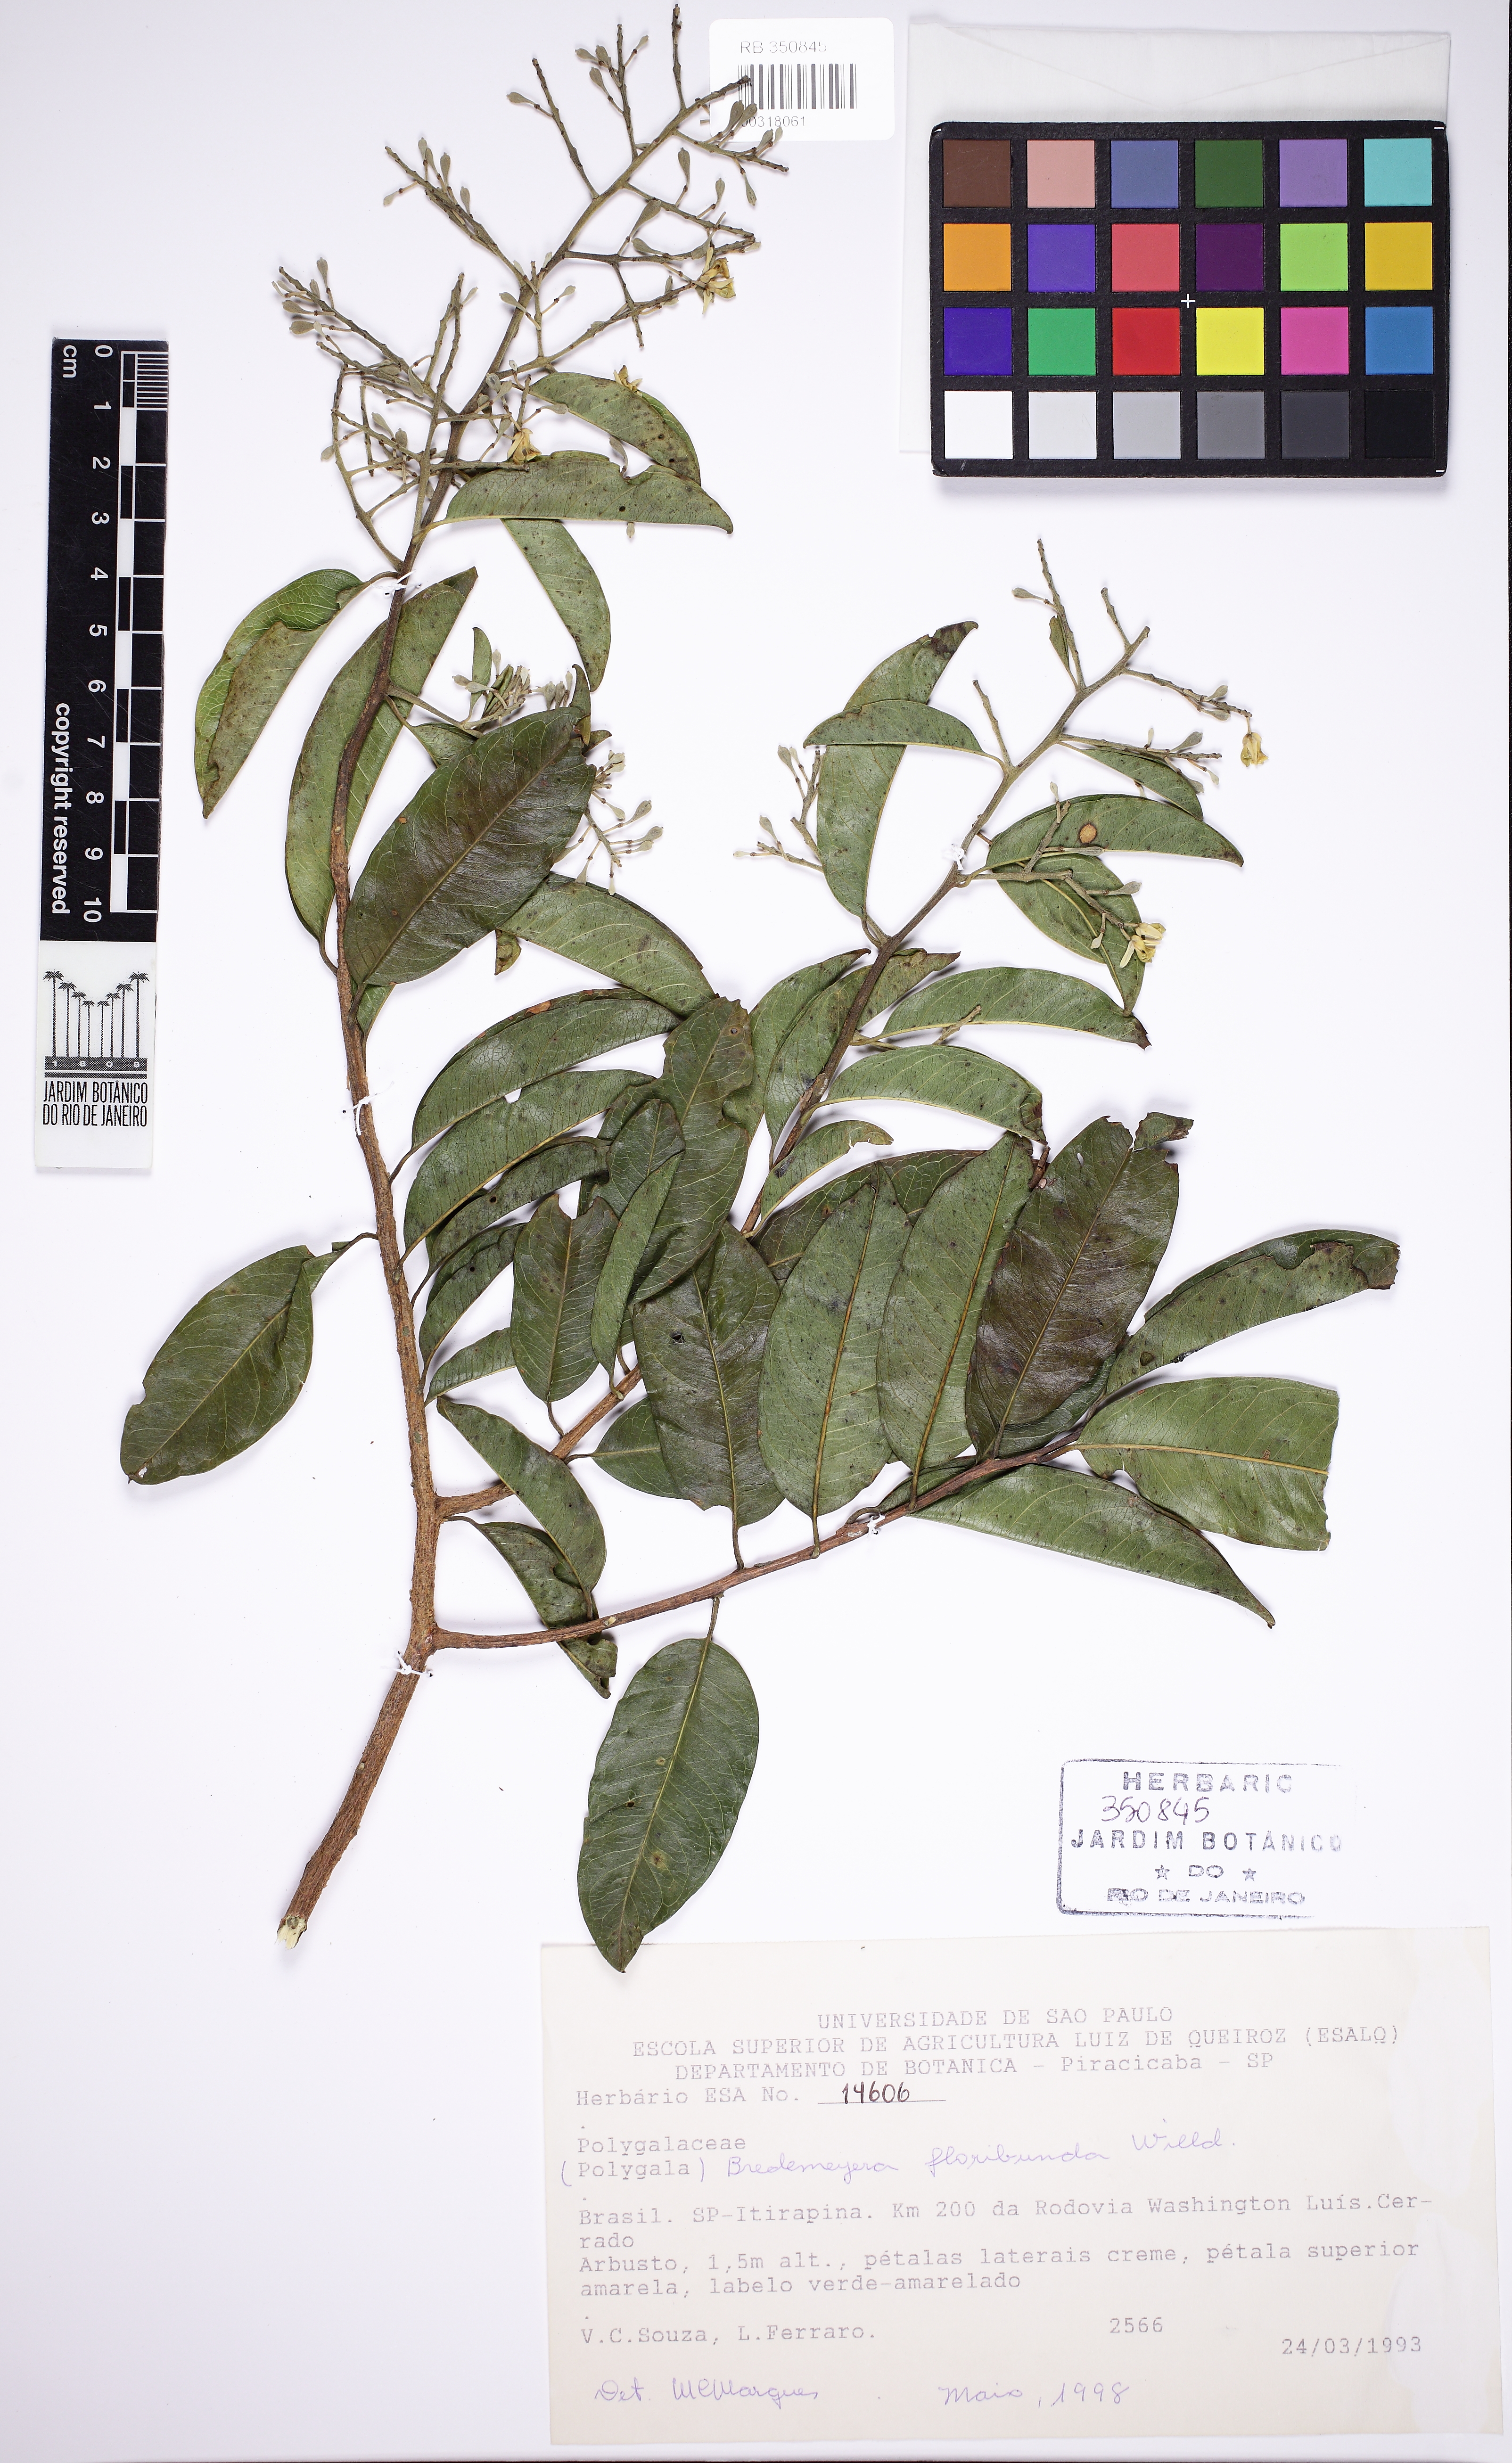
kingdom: Plantae
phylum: Tracheophyta
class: Magnoliopsida
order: Fabales
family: Polygalaceae
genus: Bredemeyera
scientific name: Bredemeyera floribunda
